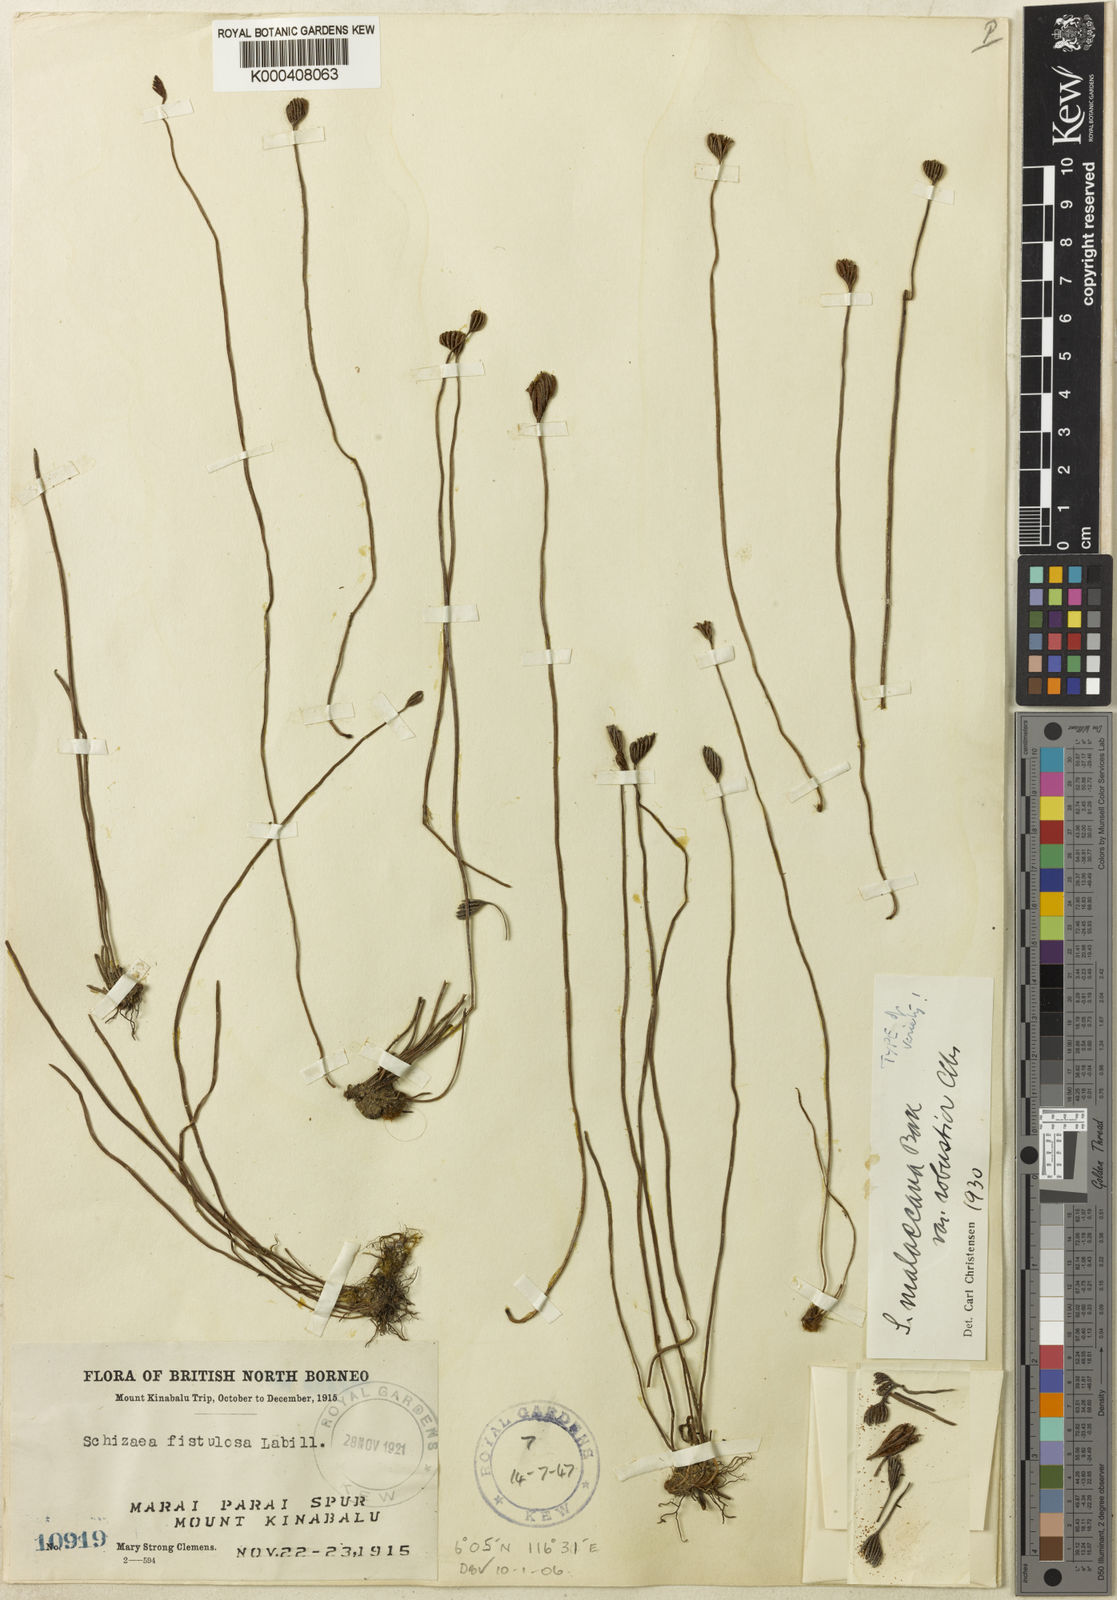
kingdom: Plantae
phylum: Tracheophyta
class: Polypodiopsida
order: Schizaeales
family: Schizaeaceae
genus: Microschizaea
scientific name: Microschizaea hallieri
